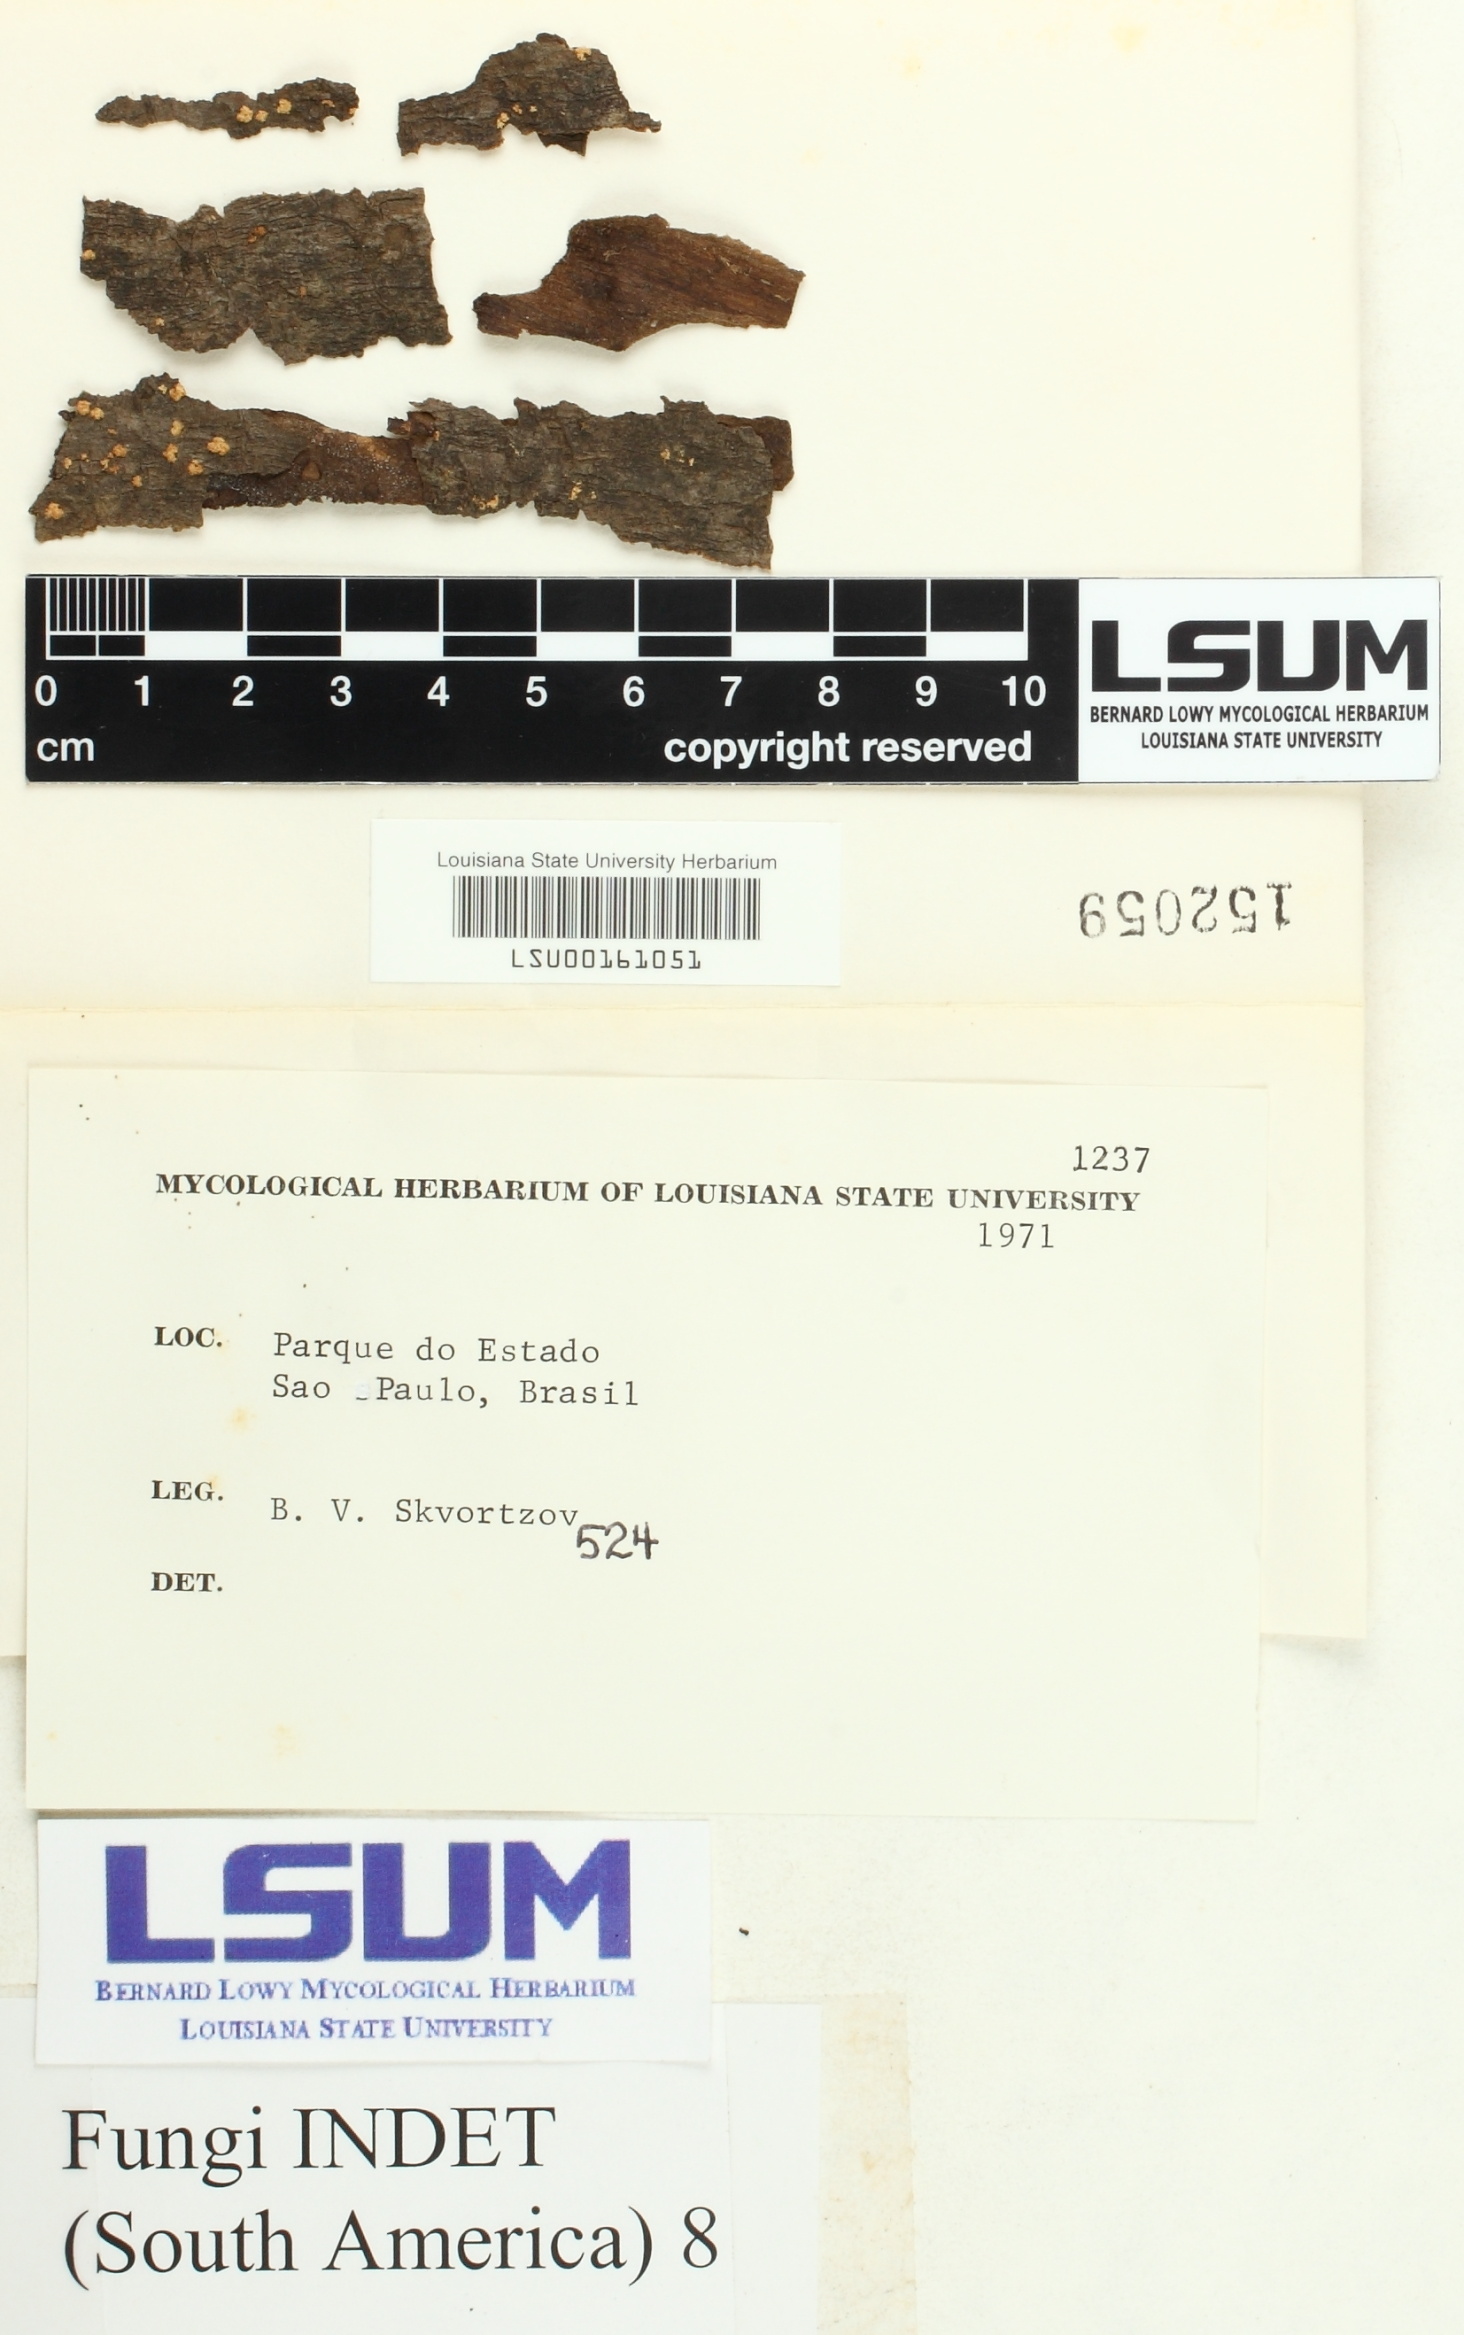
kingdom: Fungi
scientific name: Fungi
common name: Fungi
